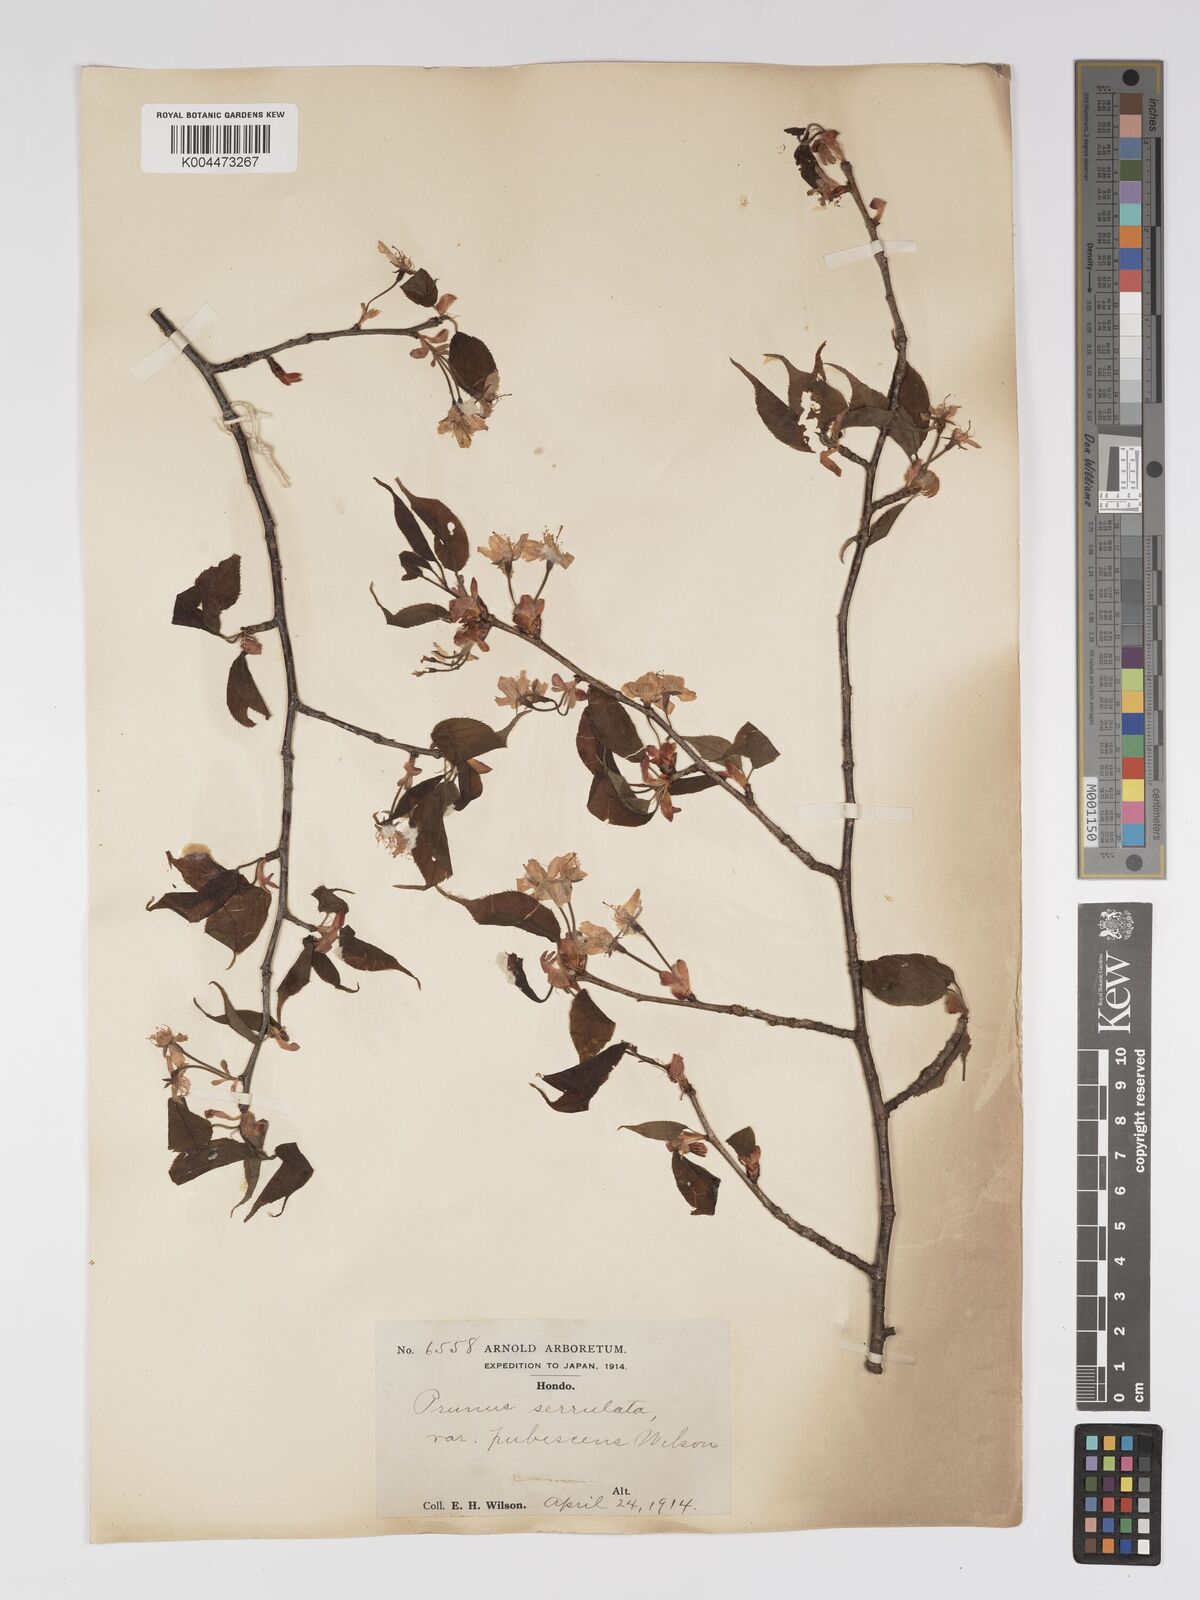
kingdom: Plantae
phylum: Tracheophyta
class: Magnoliopsida
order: Rosales
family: Rosaceae
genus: Prunus
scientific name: Prunus serrulata
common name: Japanese cherry
